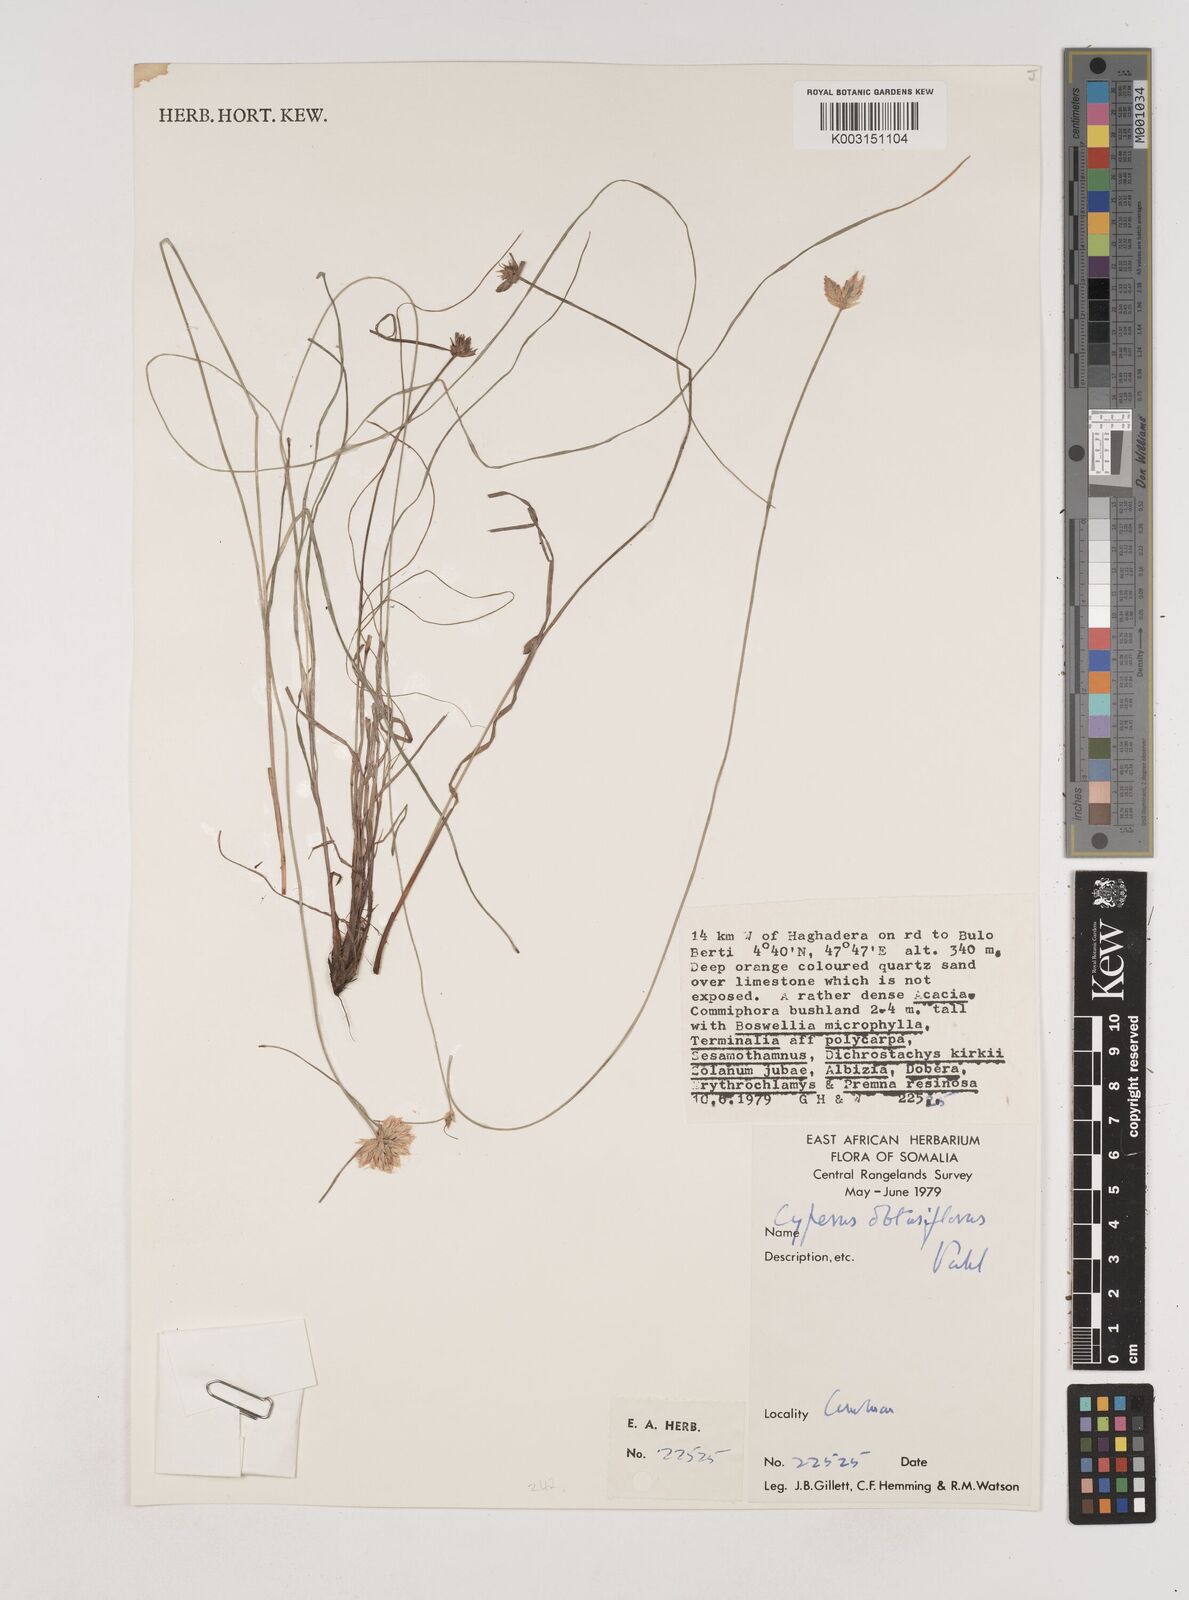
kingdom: Plantae
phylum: Tracheophyta
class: Liliopsida
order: Poales
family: Cyperaceae
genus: Cyperus
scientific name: Cyperus niveus
